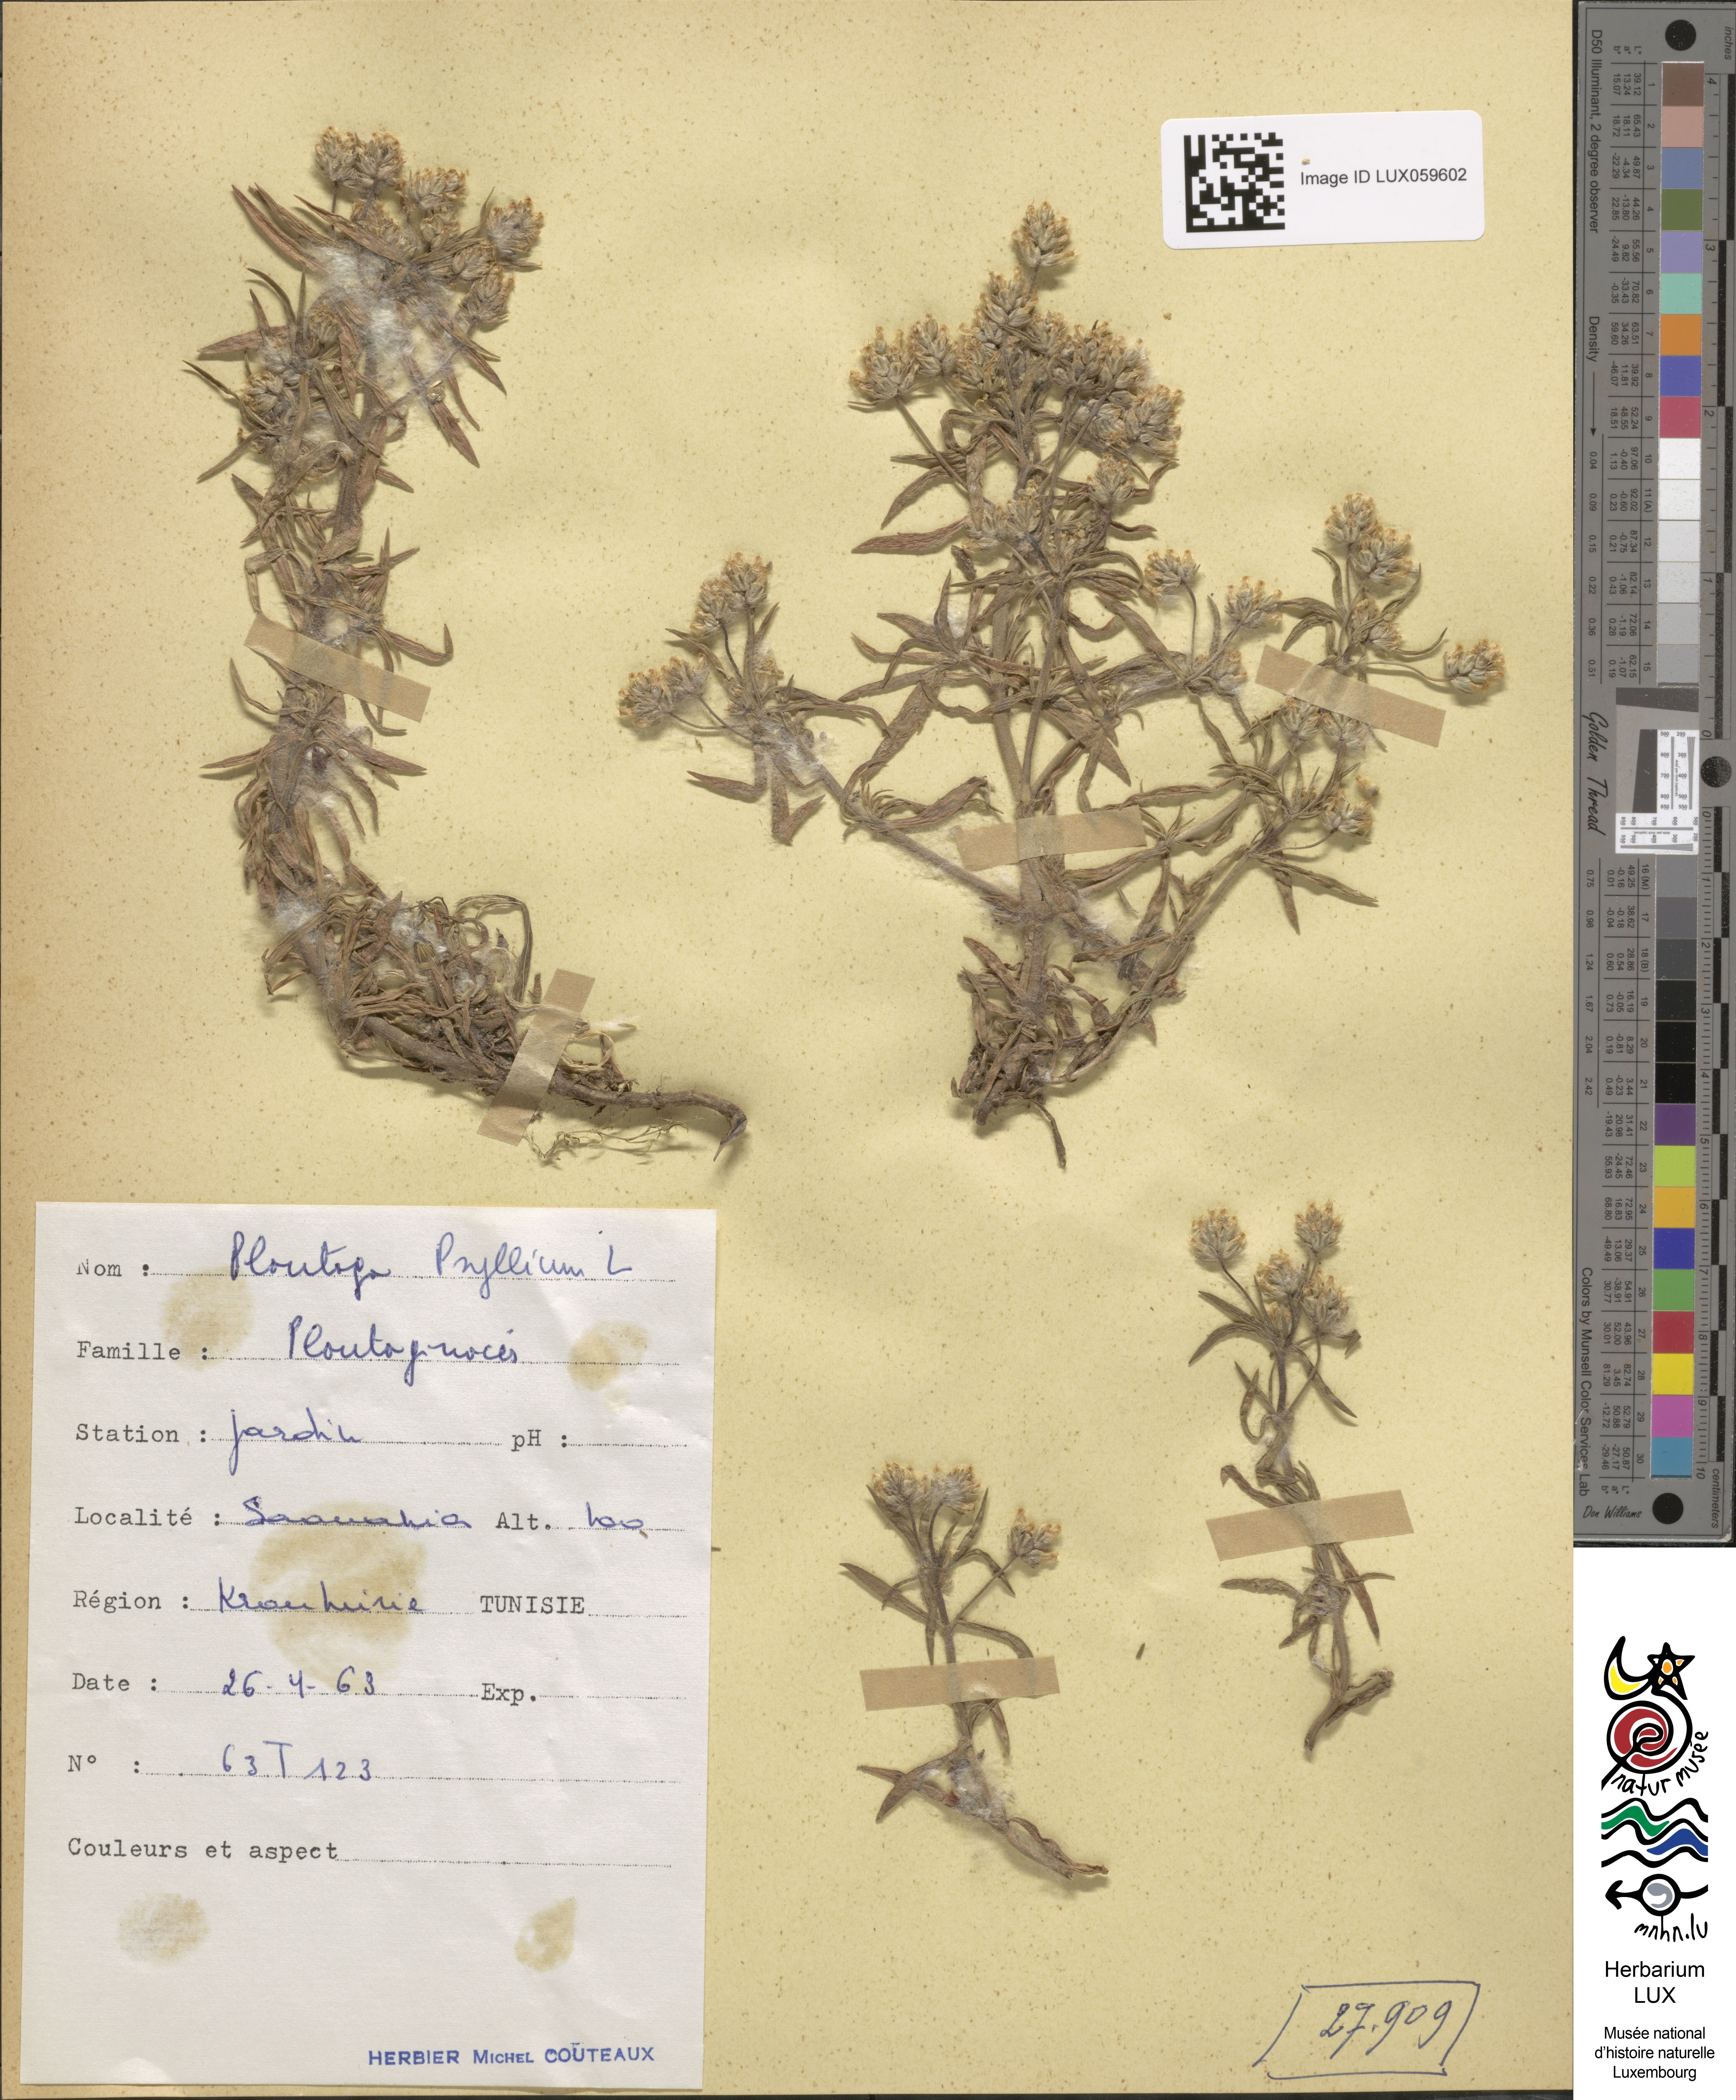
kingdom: Plantae
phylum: Tracheophyta
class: Magnoliopsida
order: Lamiales
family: Plantaginaceae
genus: Plantago
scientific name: Plantago afra
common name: Glandular plantain
